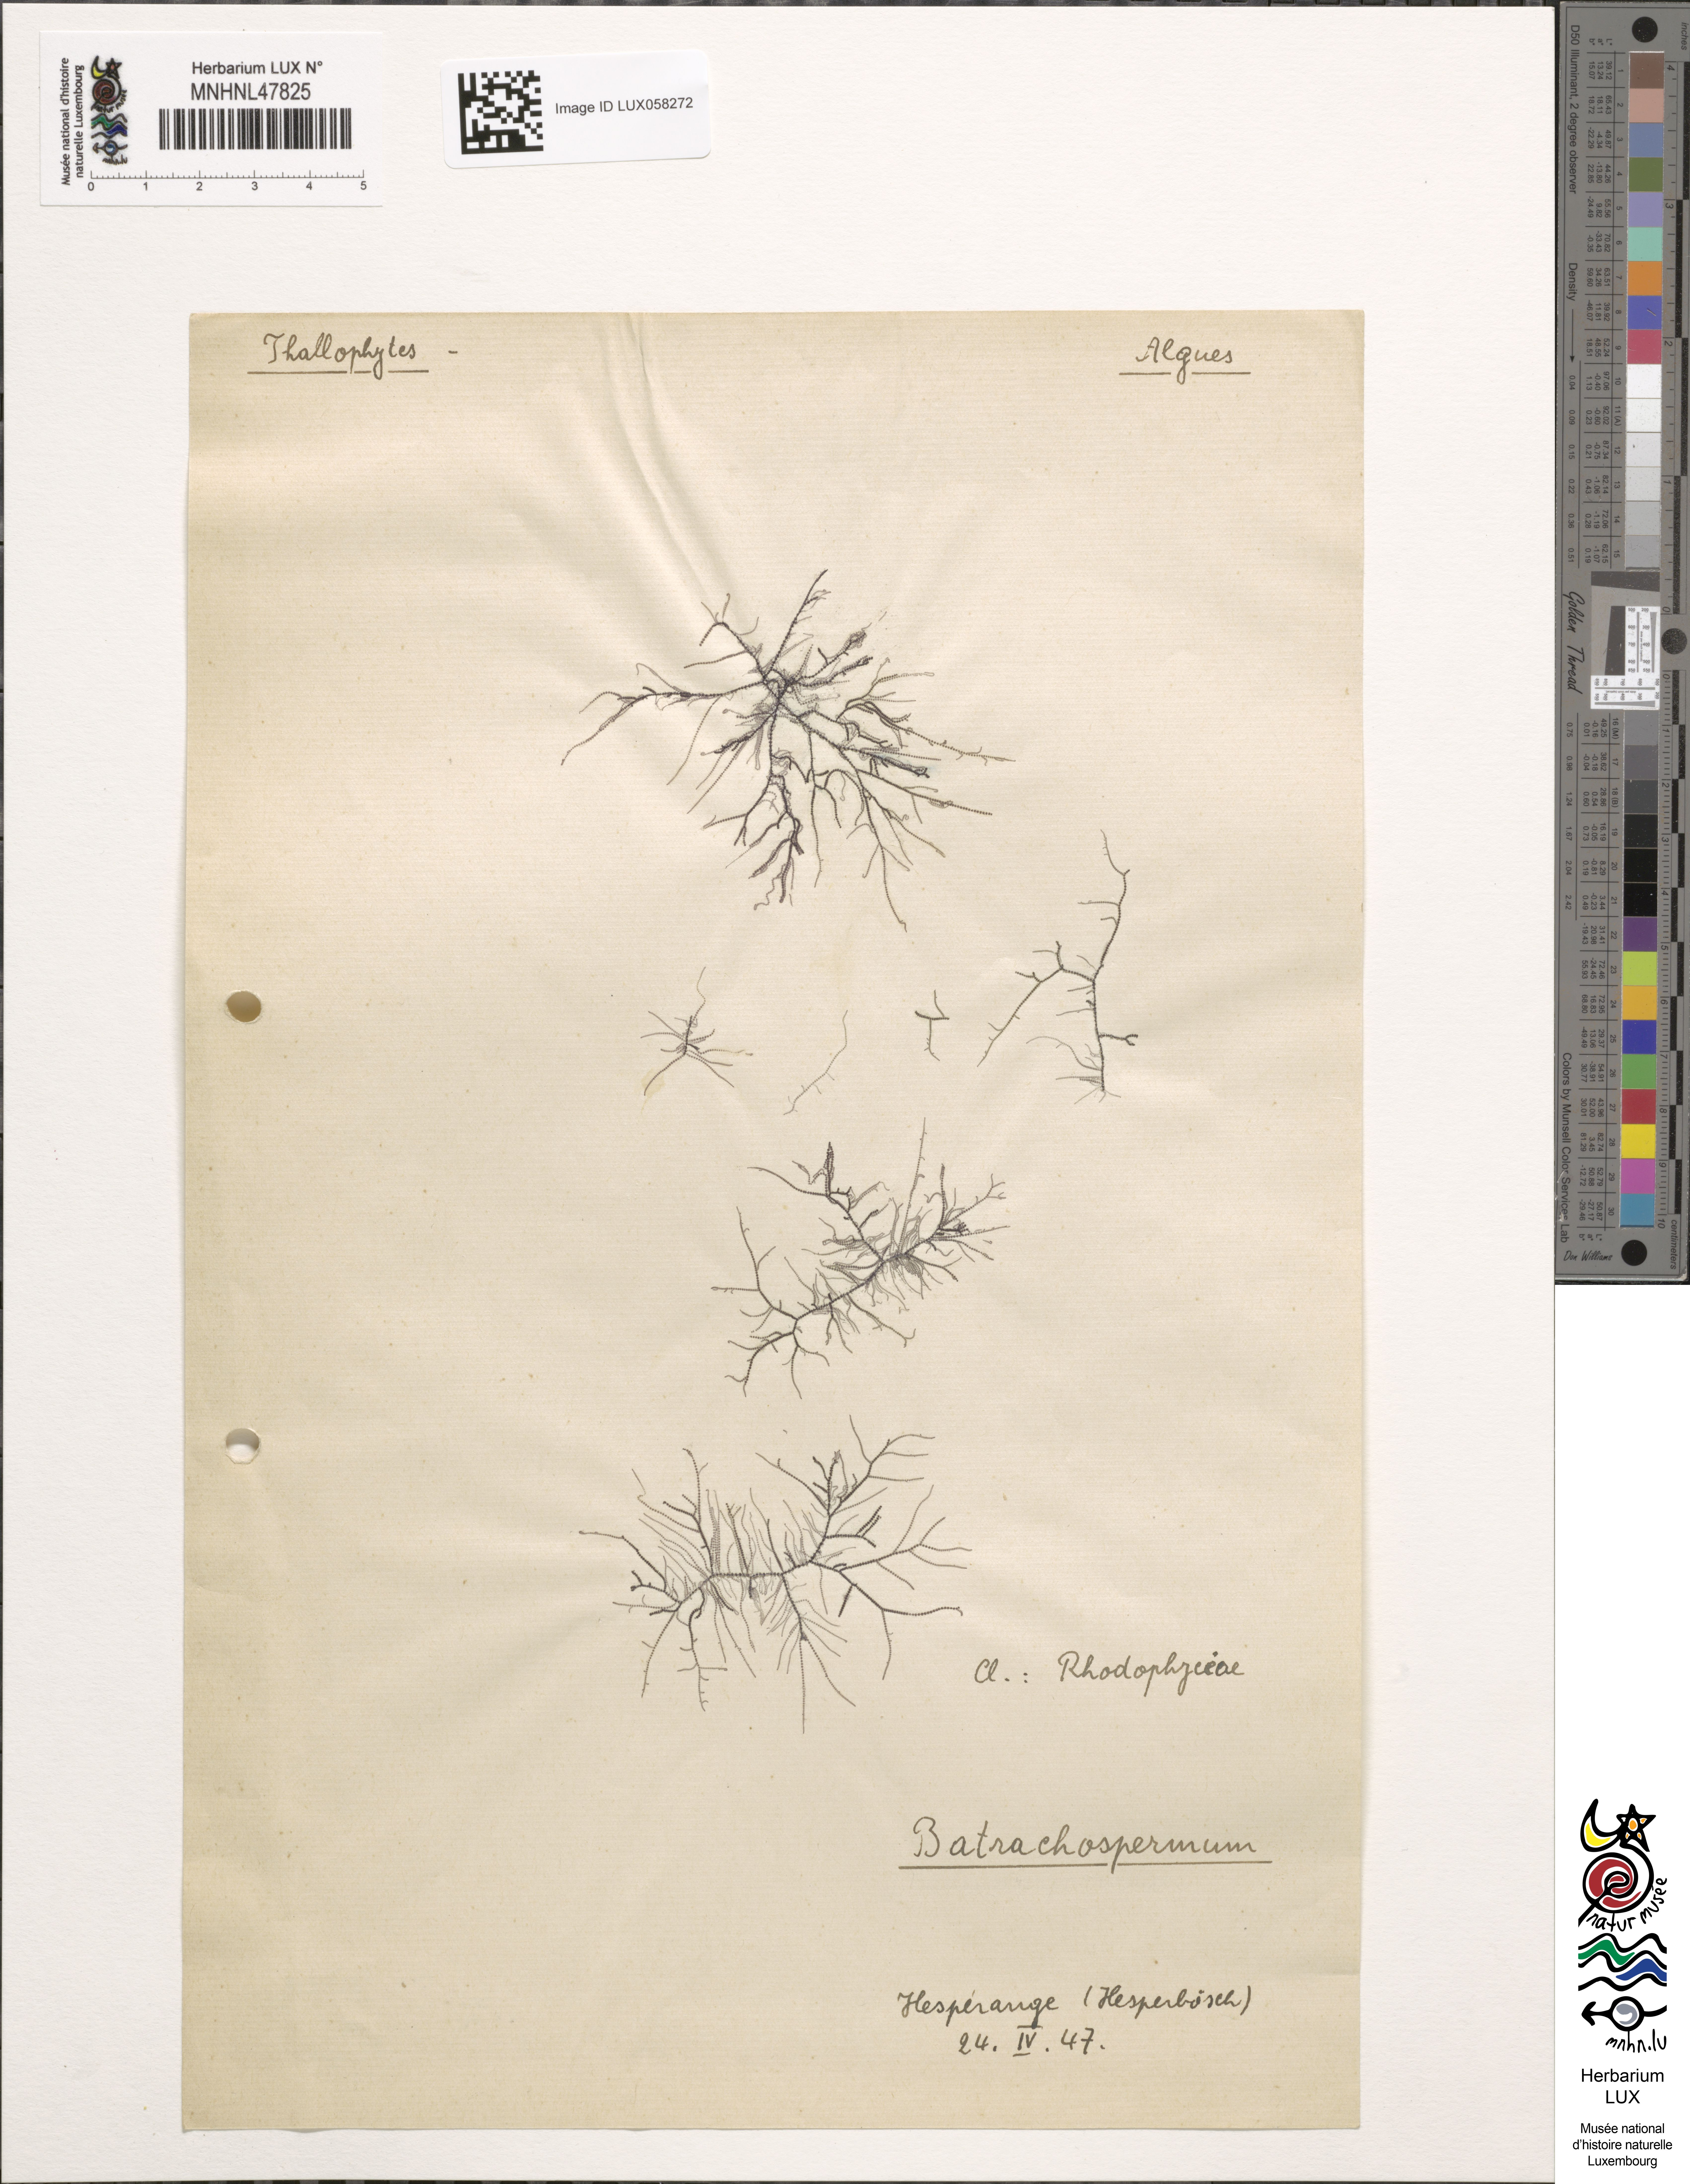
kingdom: Plantae
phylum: Rhodophyta
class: Florideophyceae
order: Batrachospermales
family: Batrachospermaceae
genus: Batrachospermum
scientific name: Batrachospermum
